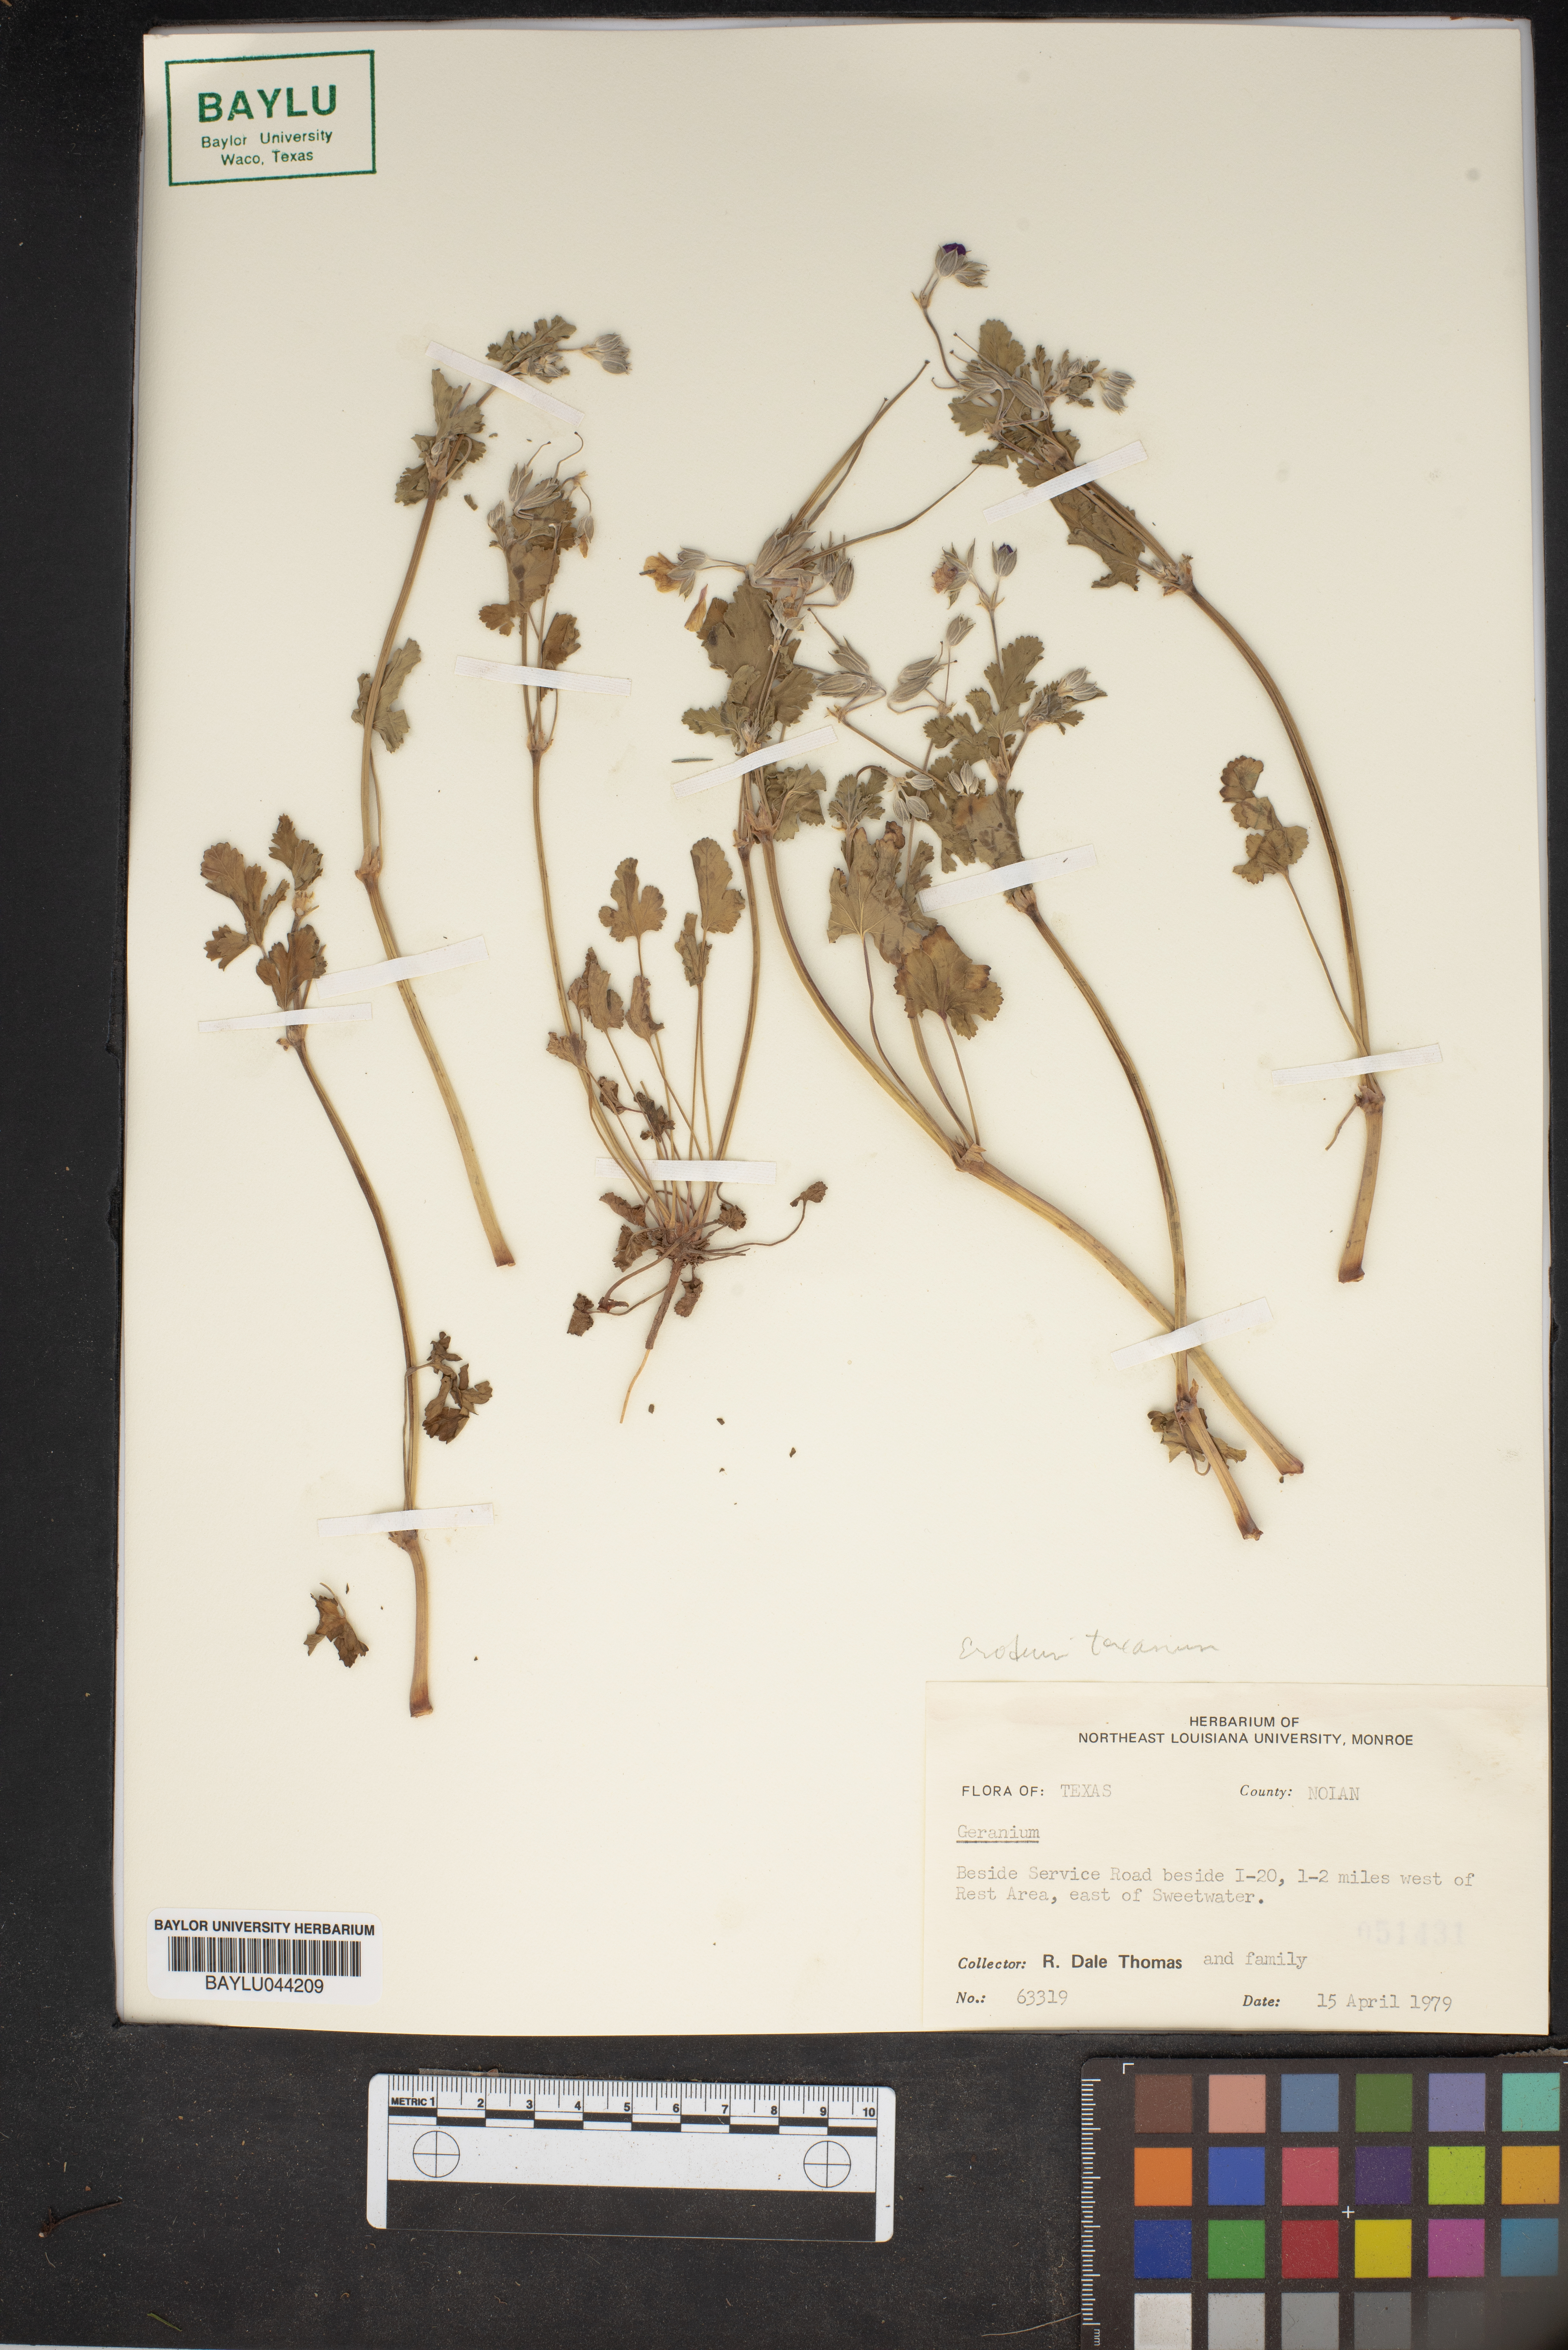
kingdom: Plantae
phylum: Tracheophyta
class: Magnoliopsida
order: Geraniales
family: Geraniaceae
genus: Erodium
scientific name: Erodium texanum
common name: Texas stork's-bill
